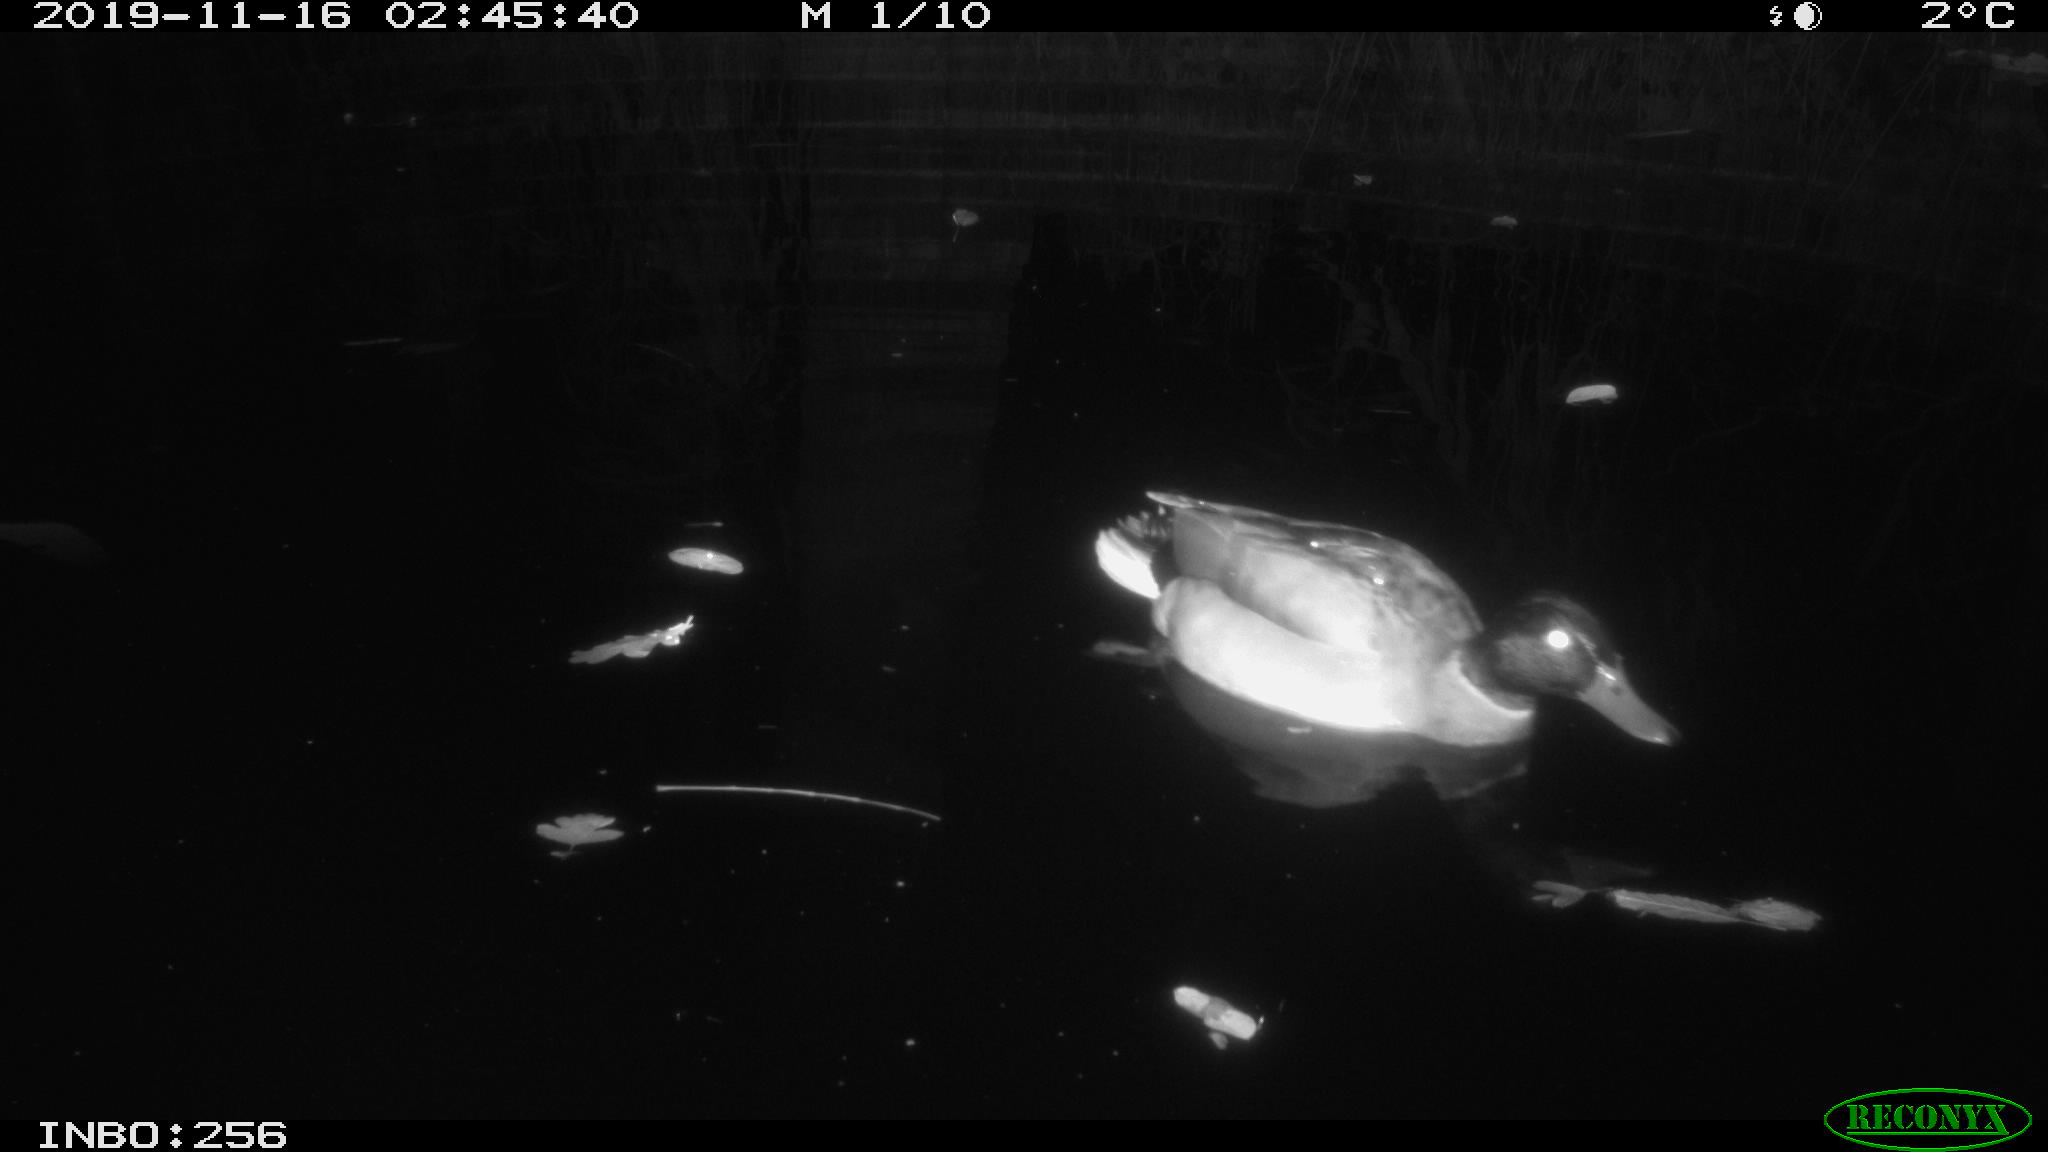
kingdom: Animalia
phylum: Chordata
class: Aves
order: Anseriformes
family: Anatidae
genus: Anas
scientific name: Anas platyrhynchos
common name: Mallard
